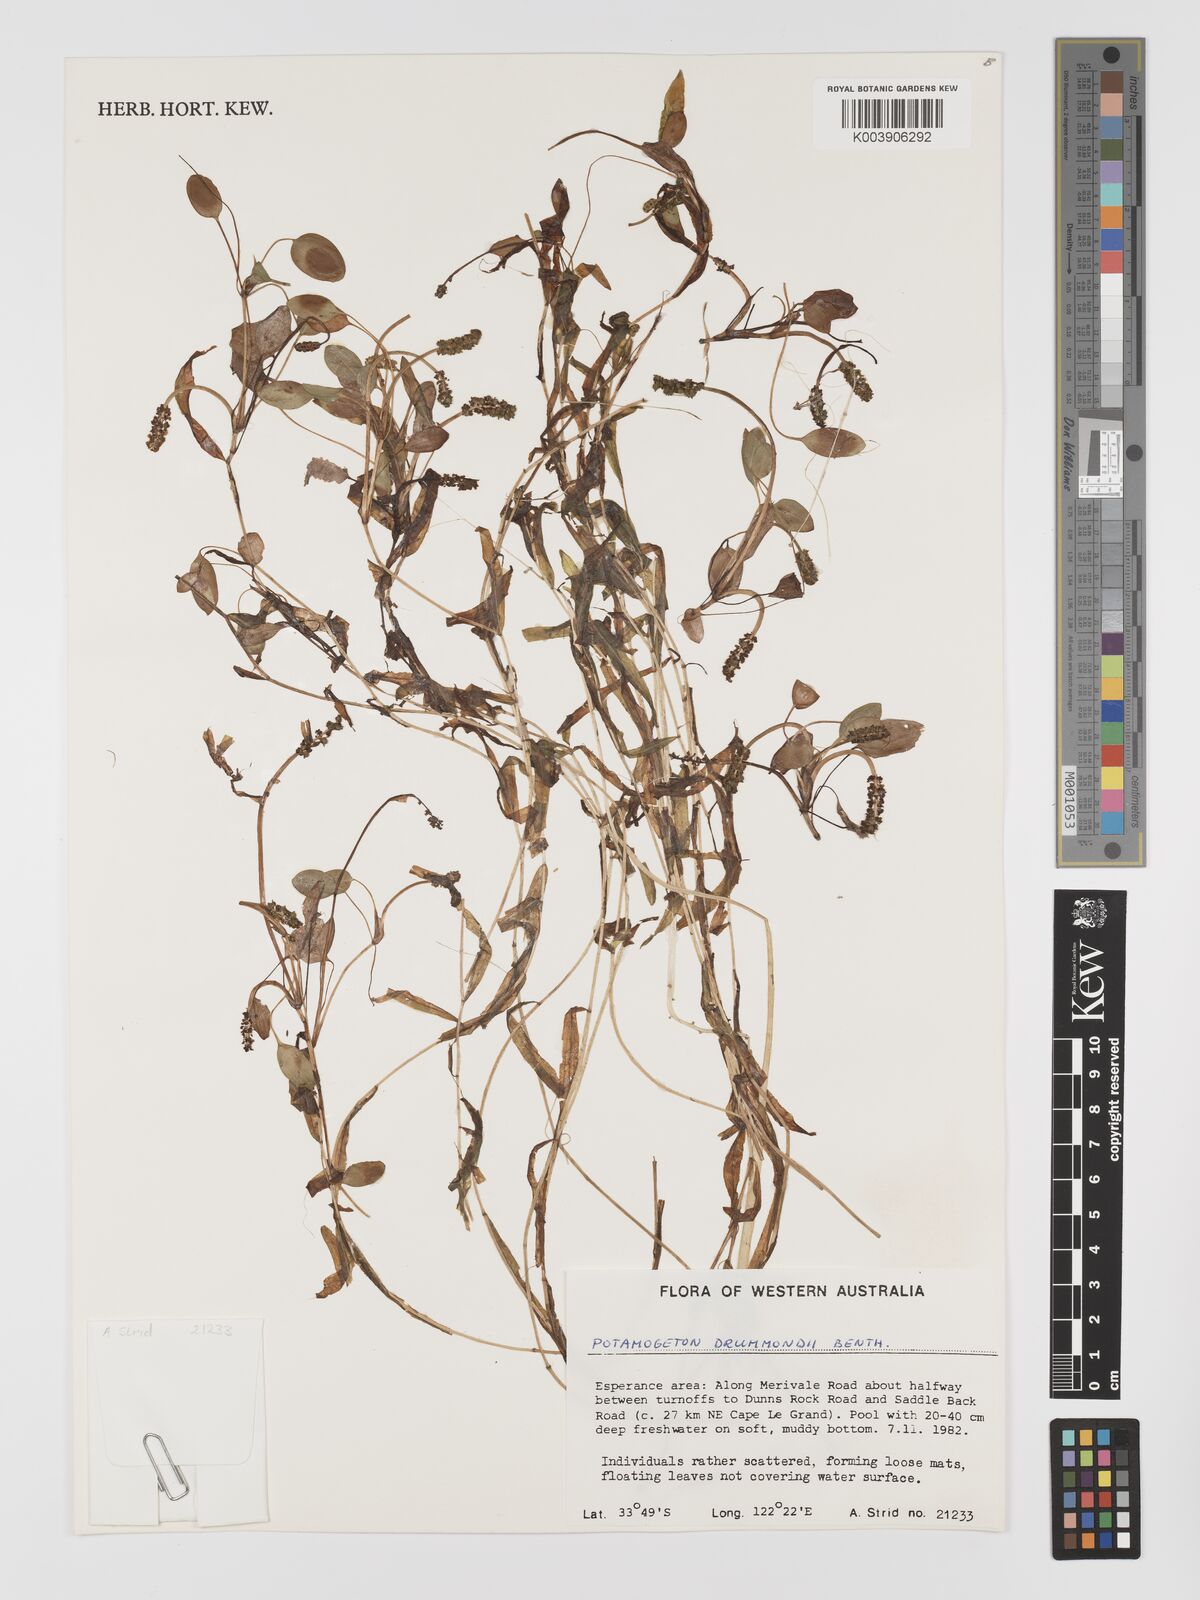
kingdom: Plantae
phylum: Tracheophyta
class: Liliopsida
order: Alismatales
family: Potamogetonaceae
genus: Potamogeton
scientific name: Potamogeton drummondii
